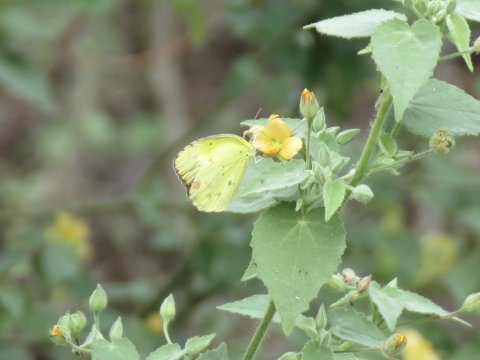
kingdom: Animalia
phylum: Arthropoda
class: Insecta
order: Lepidoptera
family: Pieridae
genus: Pyrisitia
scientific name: Pyrisitia lisa
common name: Little Yellow
